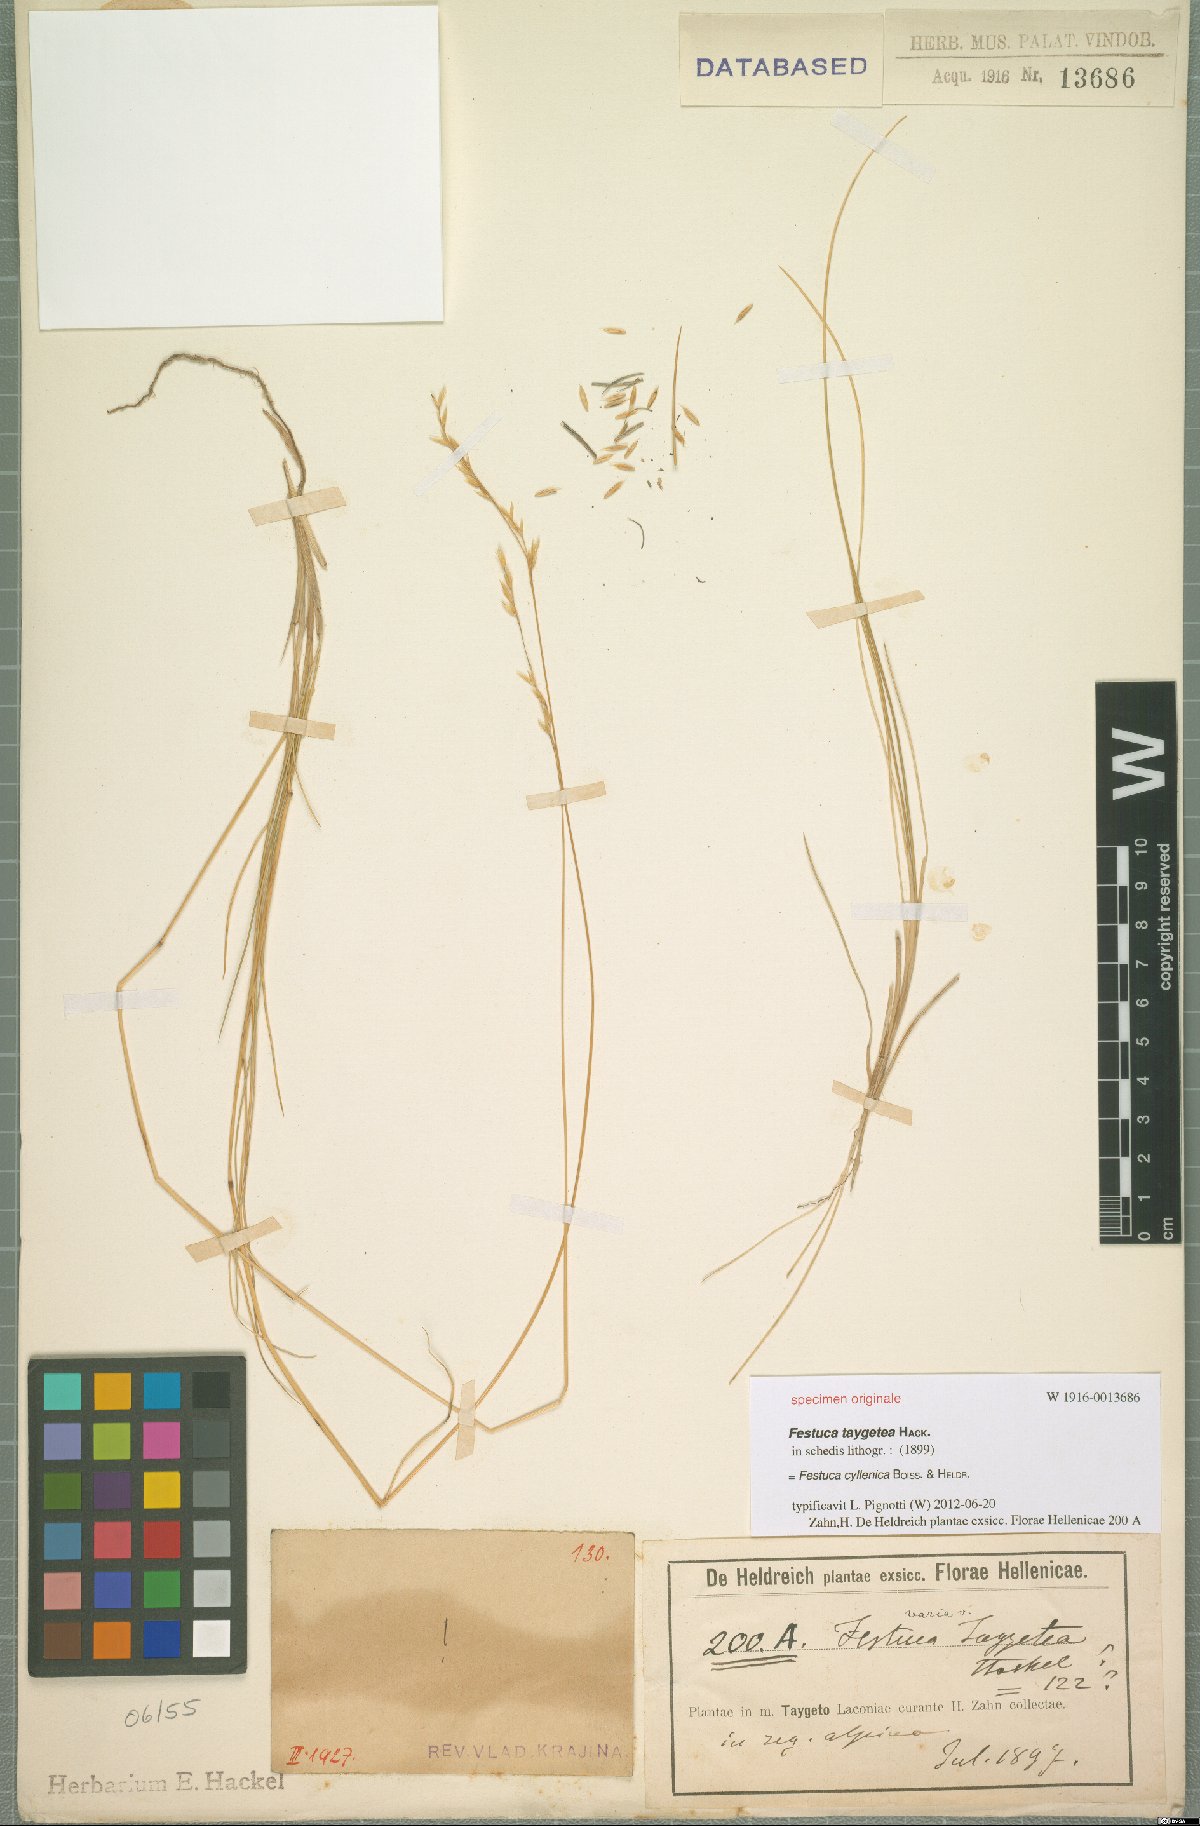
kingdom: Plantae
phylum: Tracheophyta
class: Liliopsida
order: Poales
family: Poaceae
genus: Festuca
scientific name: Festuca cyllenica
